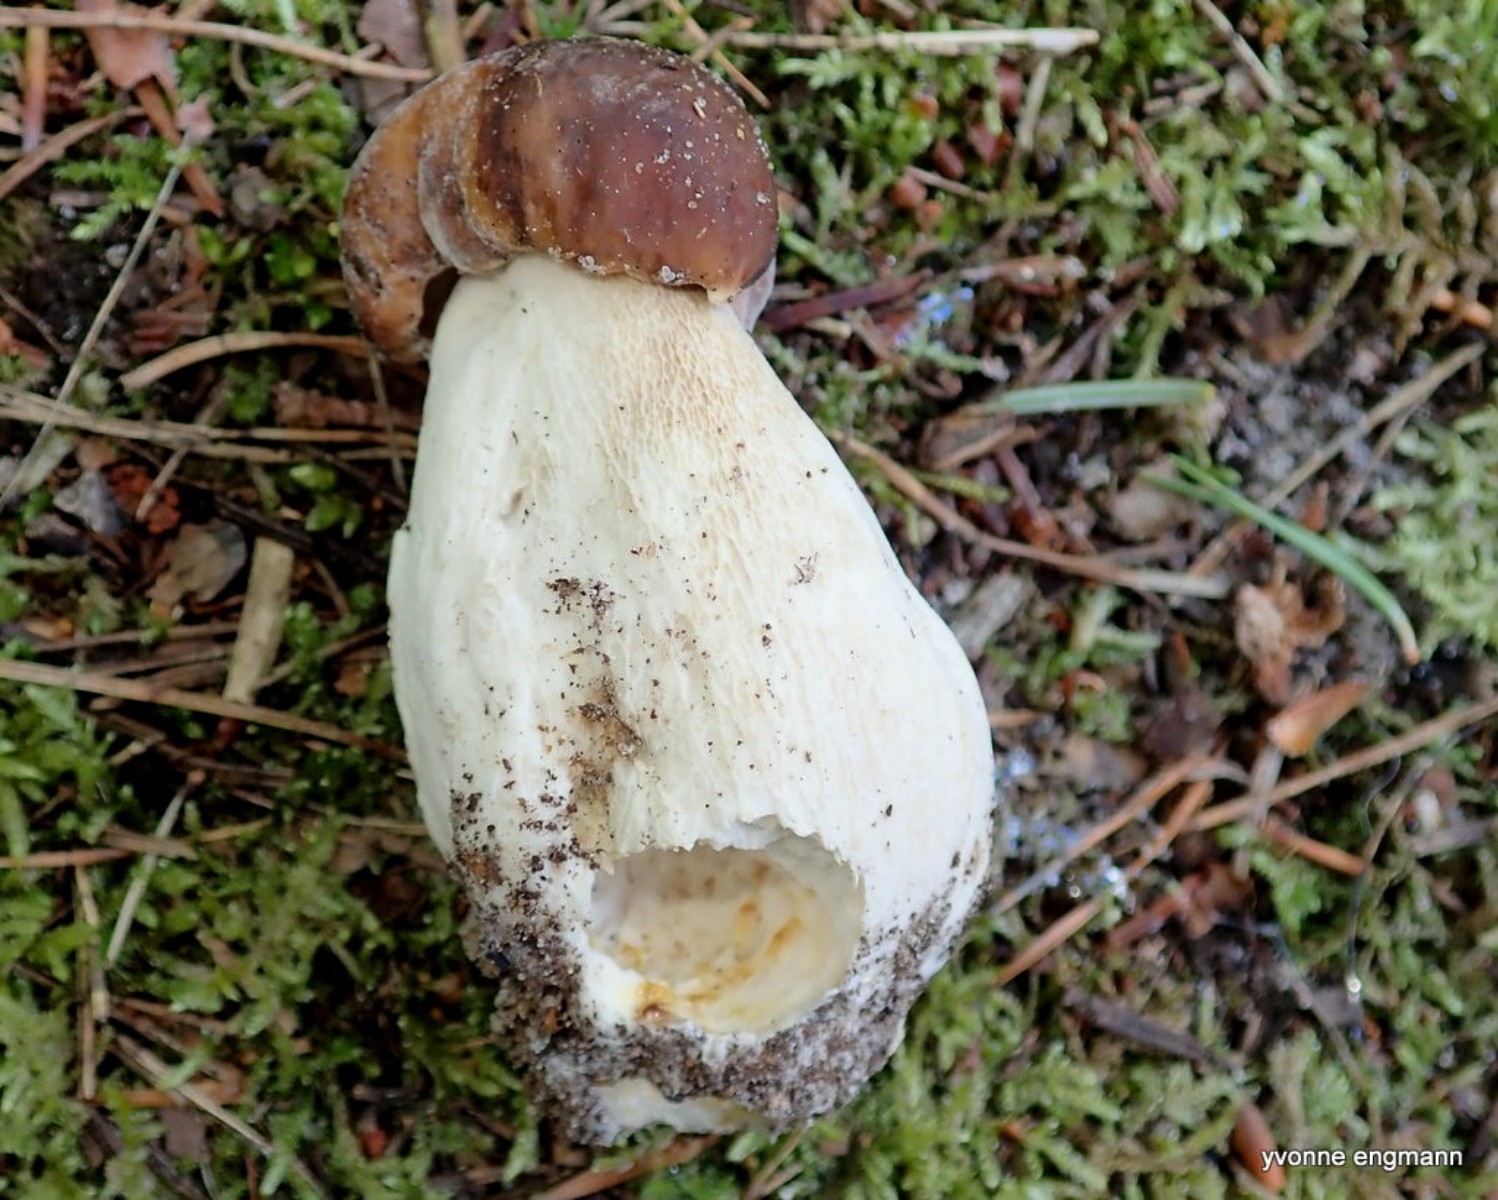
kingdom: Fungi
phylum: Basidiomycota
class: Agaricomycetes
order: Boletales
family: Boletaceae
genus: Boletus
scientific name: Boletus edulis
